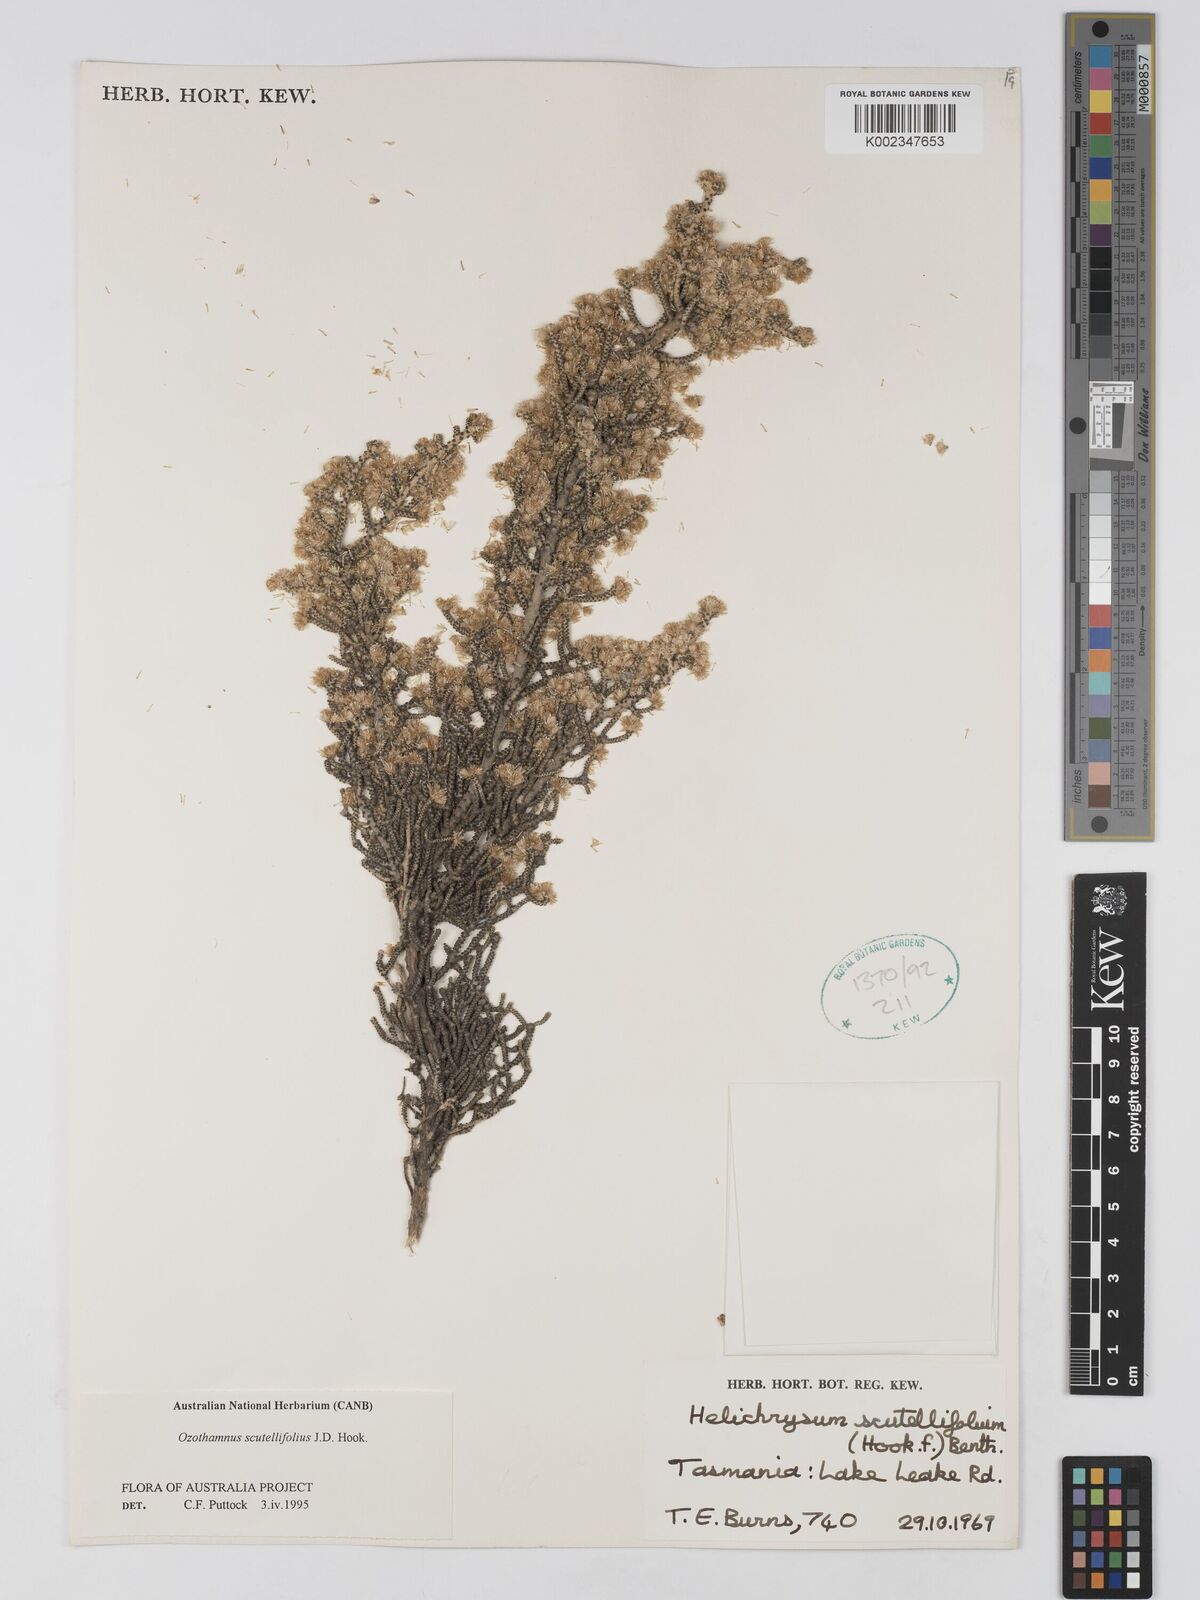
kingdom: Plantae
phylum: Tracheophyta
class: Magnoliopsida
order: Asterales
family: Asteraceae
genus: Ozothamnus
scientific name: Ozothamnus scutellifolius
